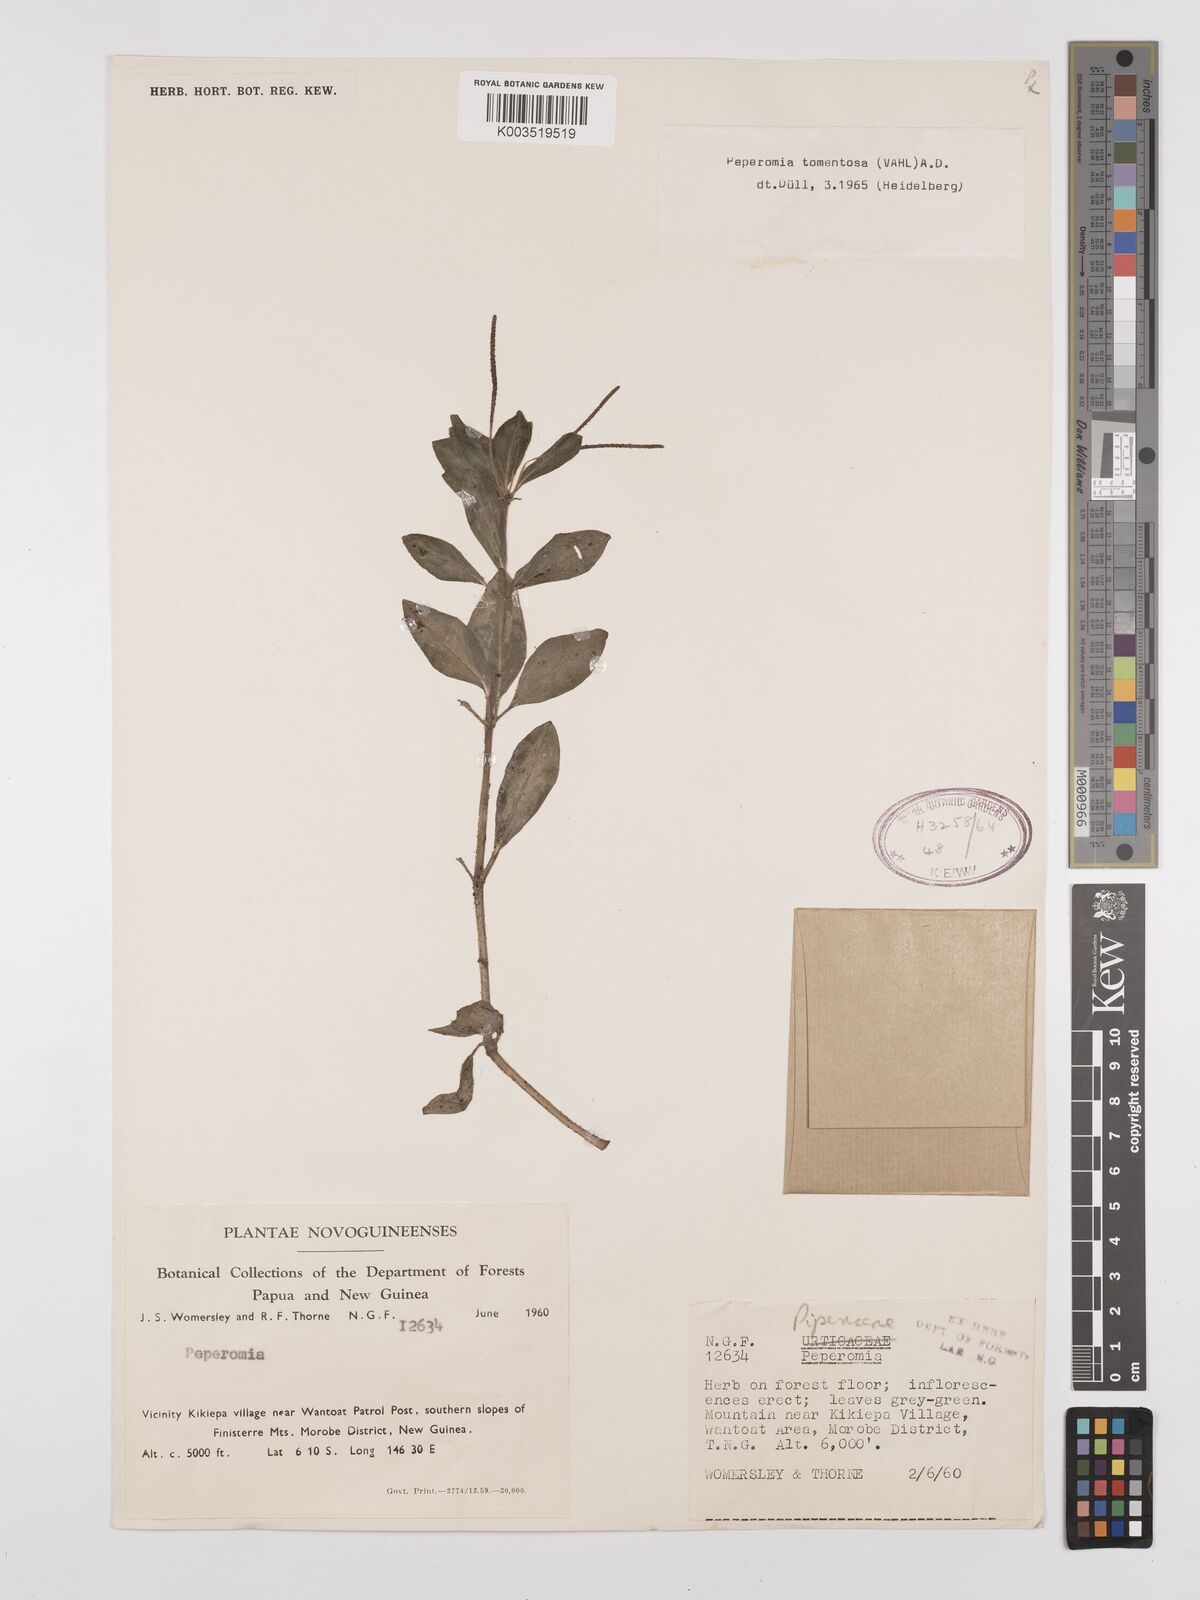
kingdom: Plantae
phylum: Tracheophyta
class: Magnoliopsida
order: Piperales
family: Piperaceae
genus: Peperomia
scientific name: Peperomia tomentosa
